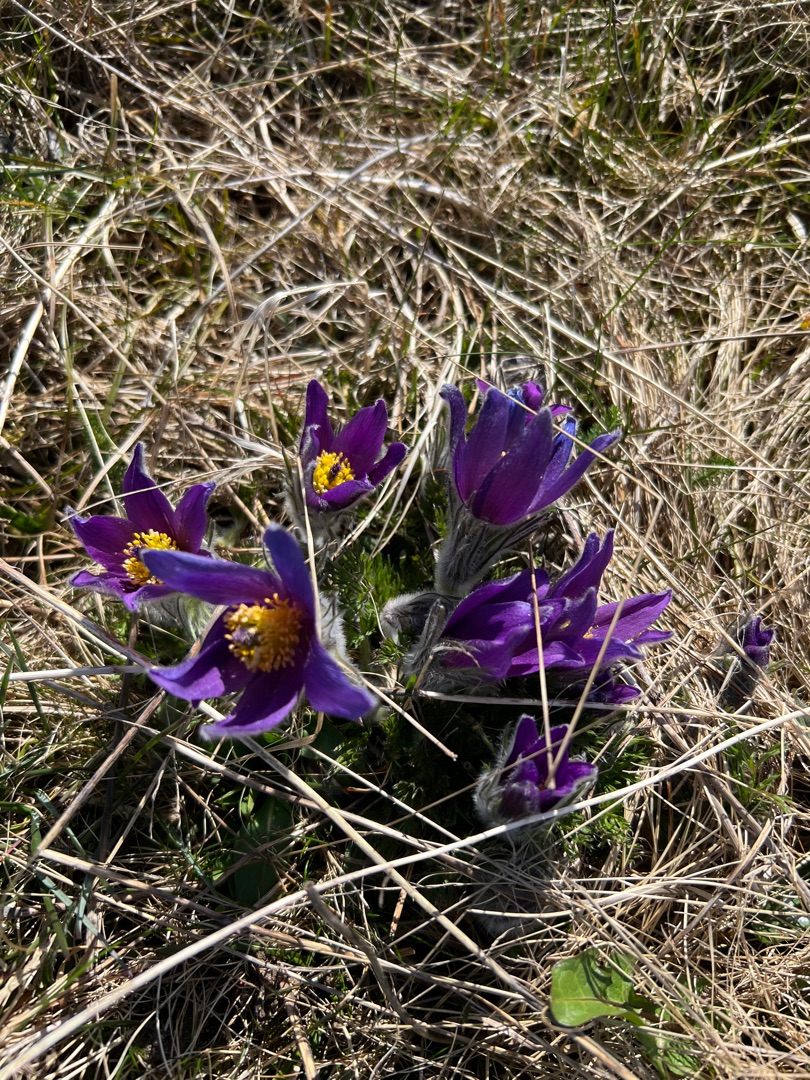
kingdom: Plantae
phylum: Tracheophyta
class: Magnoliopsida
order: Ranunculales
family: Ranunculaceae
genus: Pulsatilla
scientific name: Pulsatilla vulgaris
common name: Opret kobjælde
